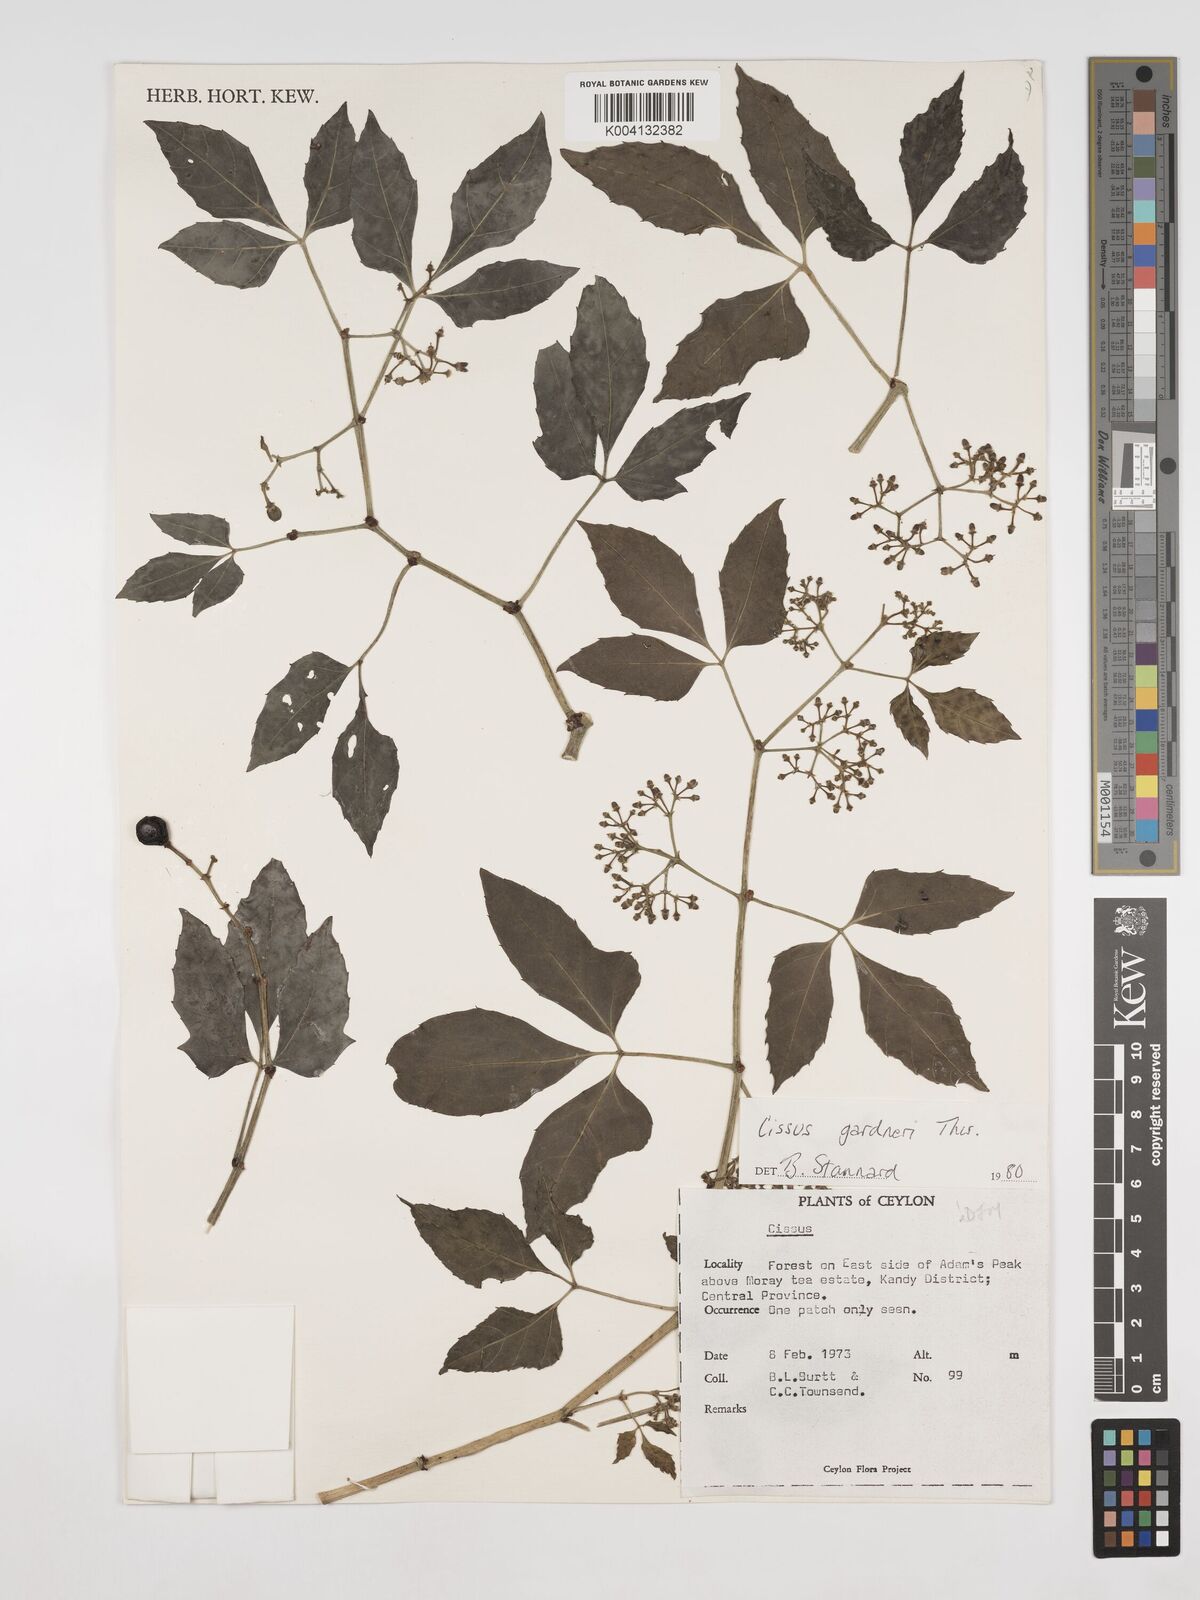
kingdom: Plantae
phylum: Tracheophyta
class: Magnoliopsida
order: Vitales
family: Vitaceae
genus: Cissus
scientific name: Cissus gardneri
